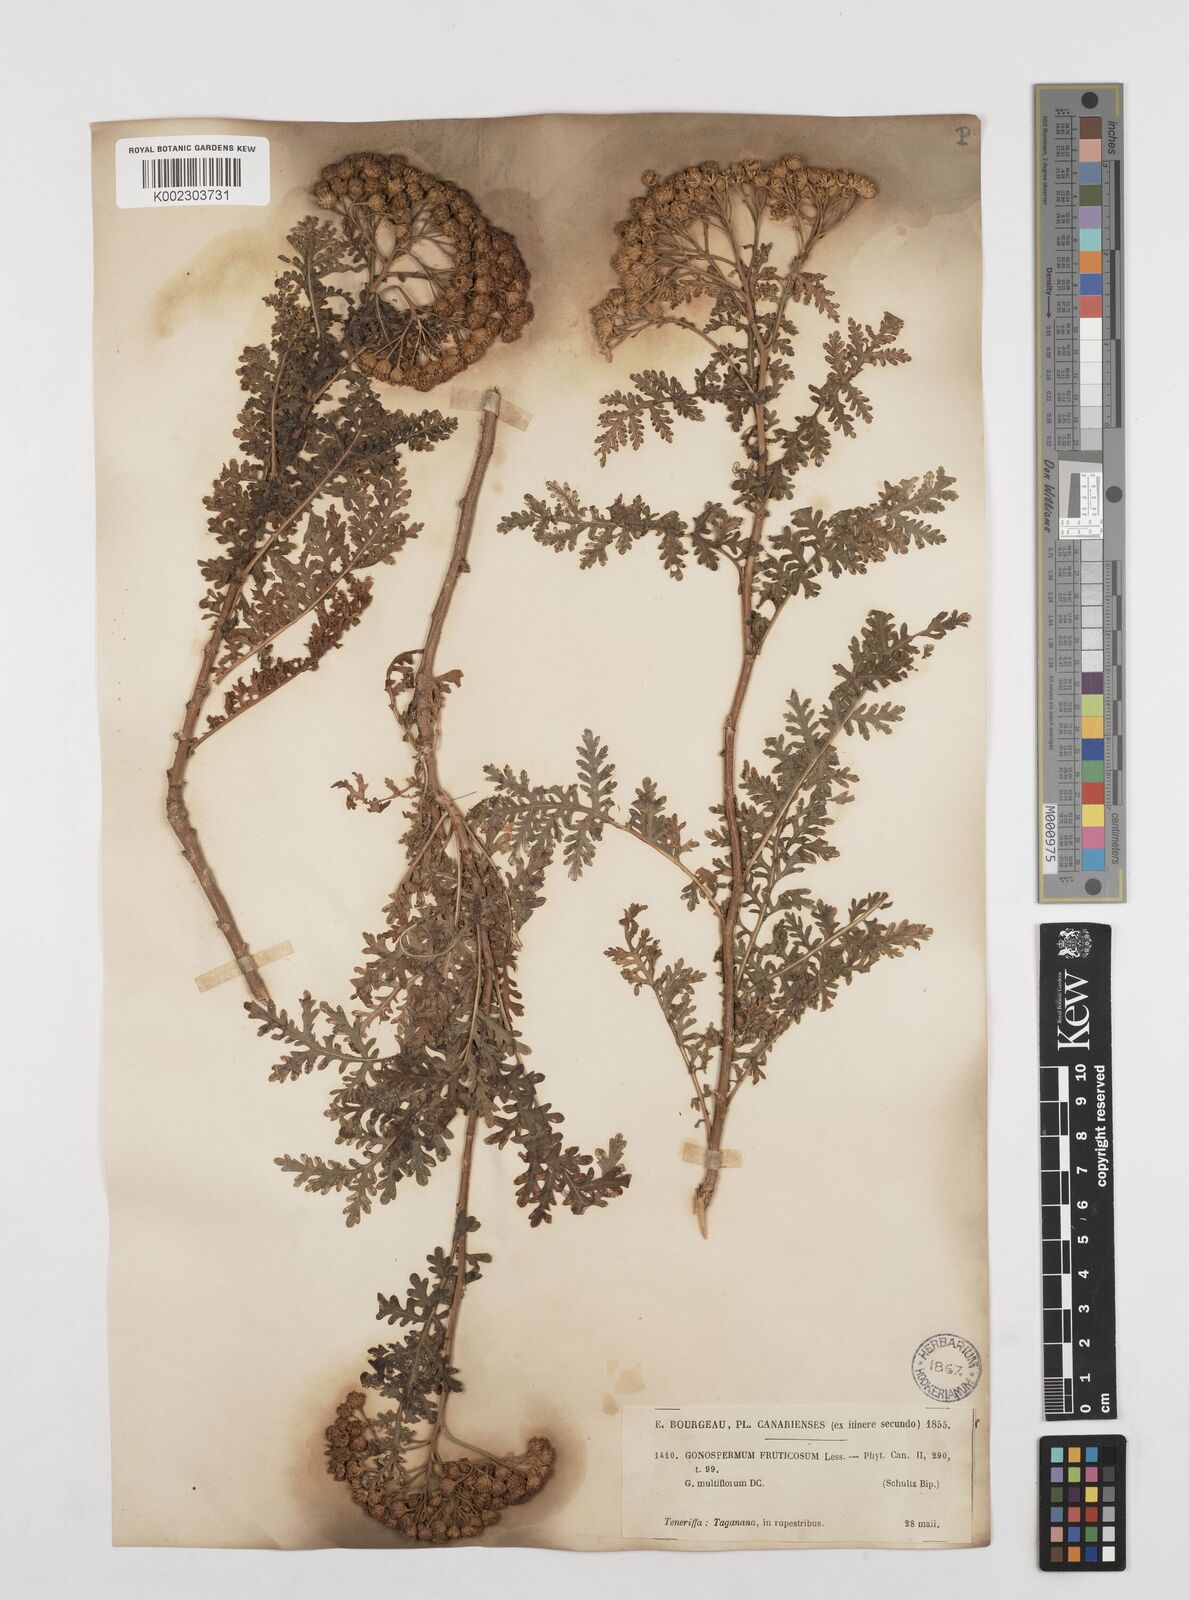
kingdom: Plantae
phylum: Tracheophyta
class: Magnoliopsida
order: Asterales
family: Asteraceae
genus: Gonospermum
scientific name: Gonospermum fruticosum
